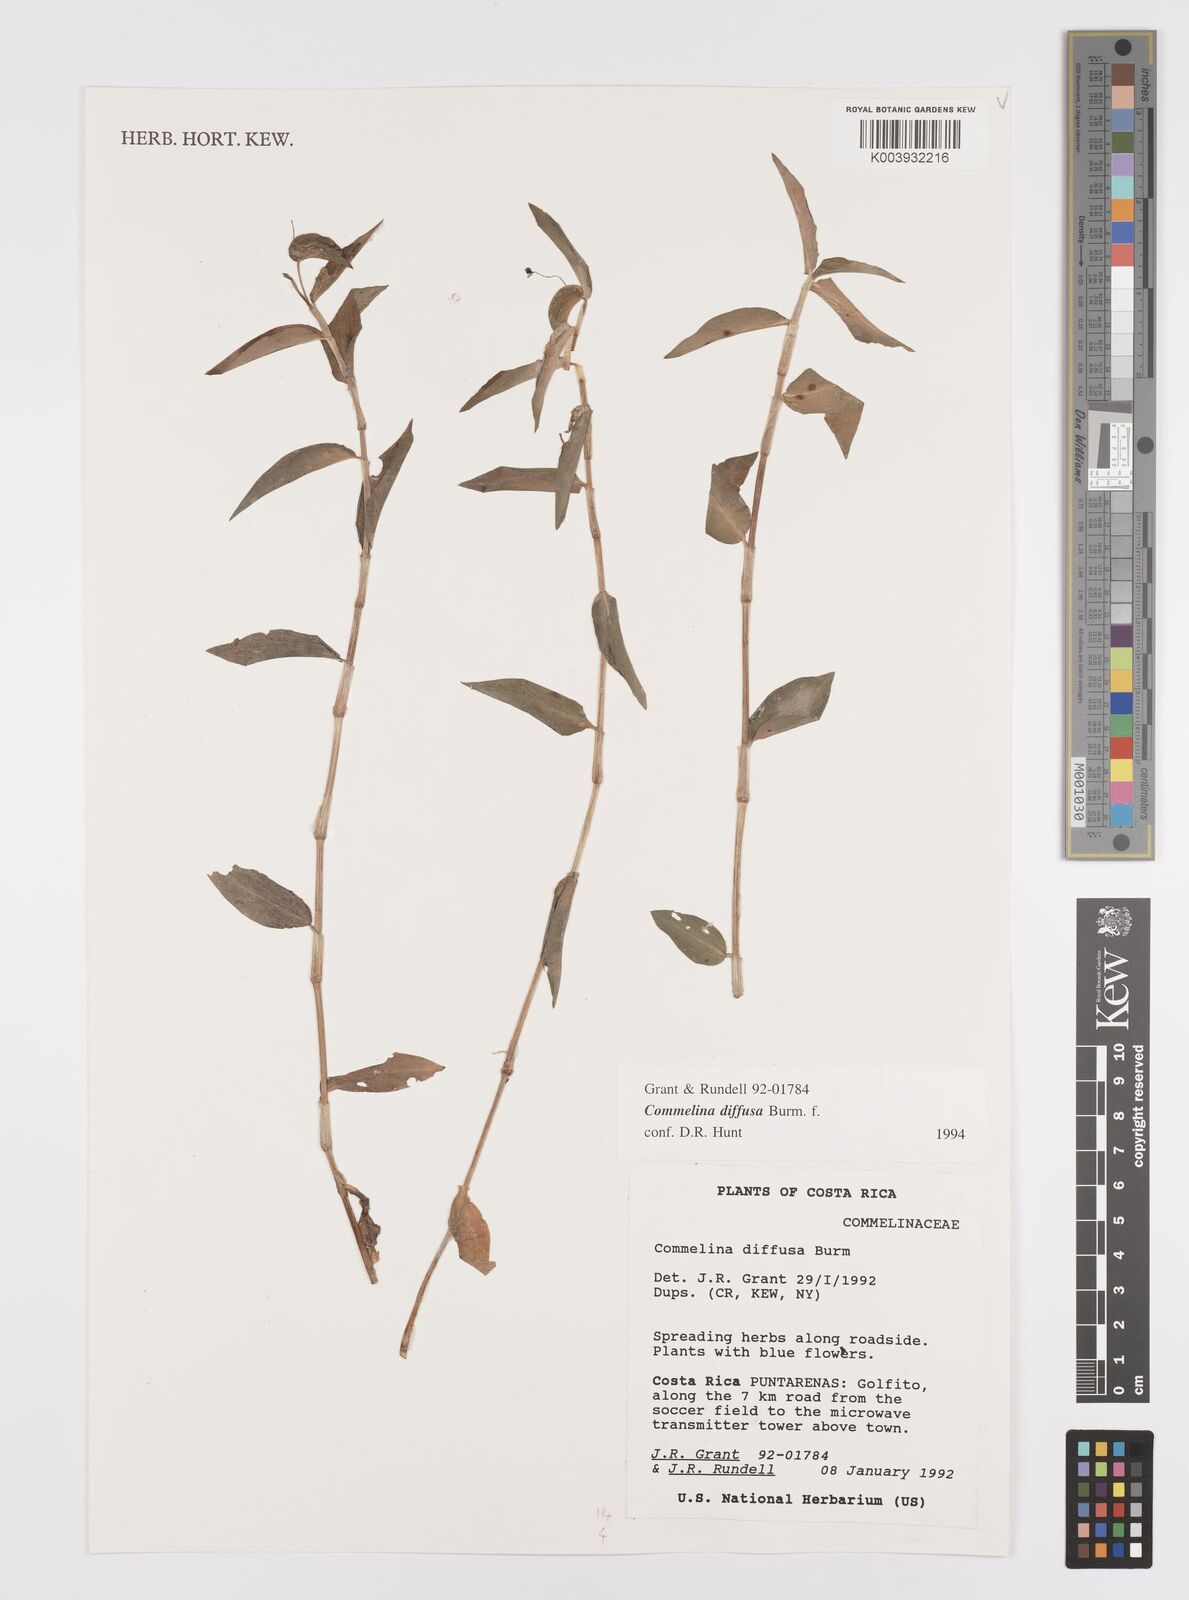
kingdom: Plantae
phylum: Tracheophyta
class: Liliopsida
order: Commelinales
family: Commelinaceae
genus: Commelina
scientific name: Commelina diffusa
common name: Climbing dayflower
